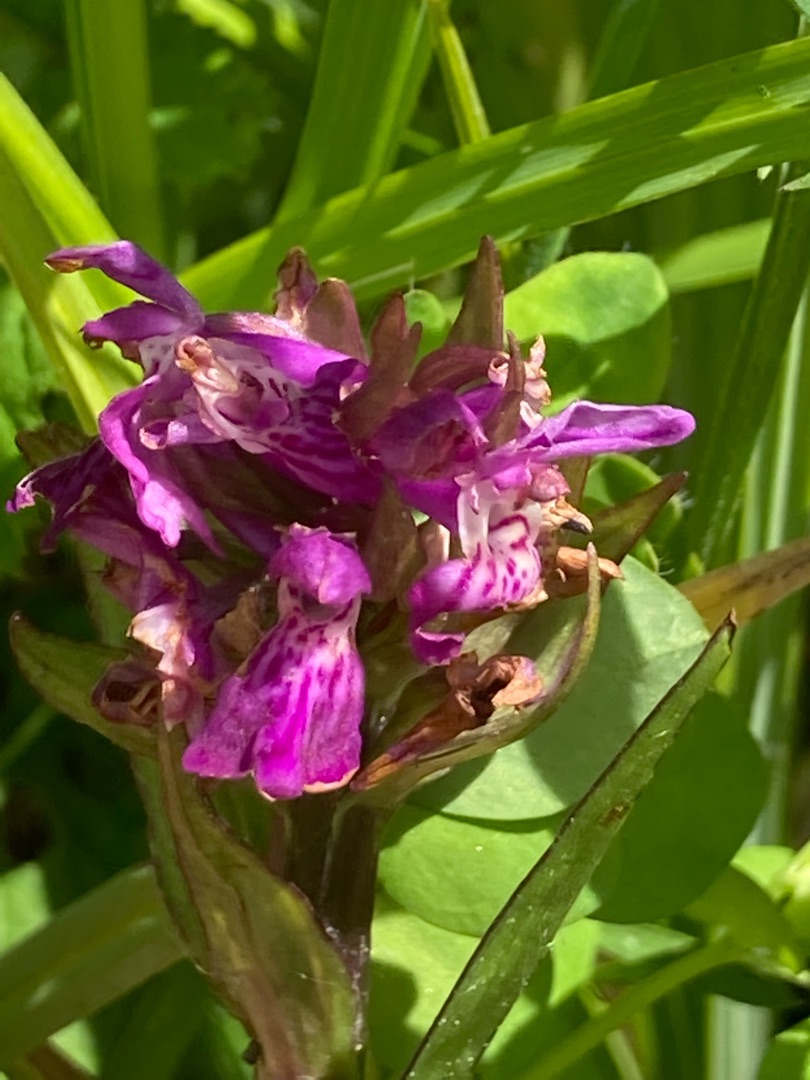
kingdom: Plantae
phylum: Tracheophyta
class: Liliopsida
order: Asparagales
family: Orchidaceae
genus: Dactylorhiza
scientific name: Dactylorhiza majalis
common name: Maj-gøgeurt
